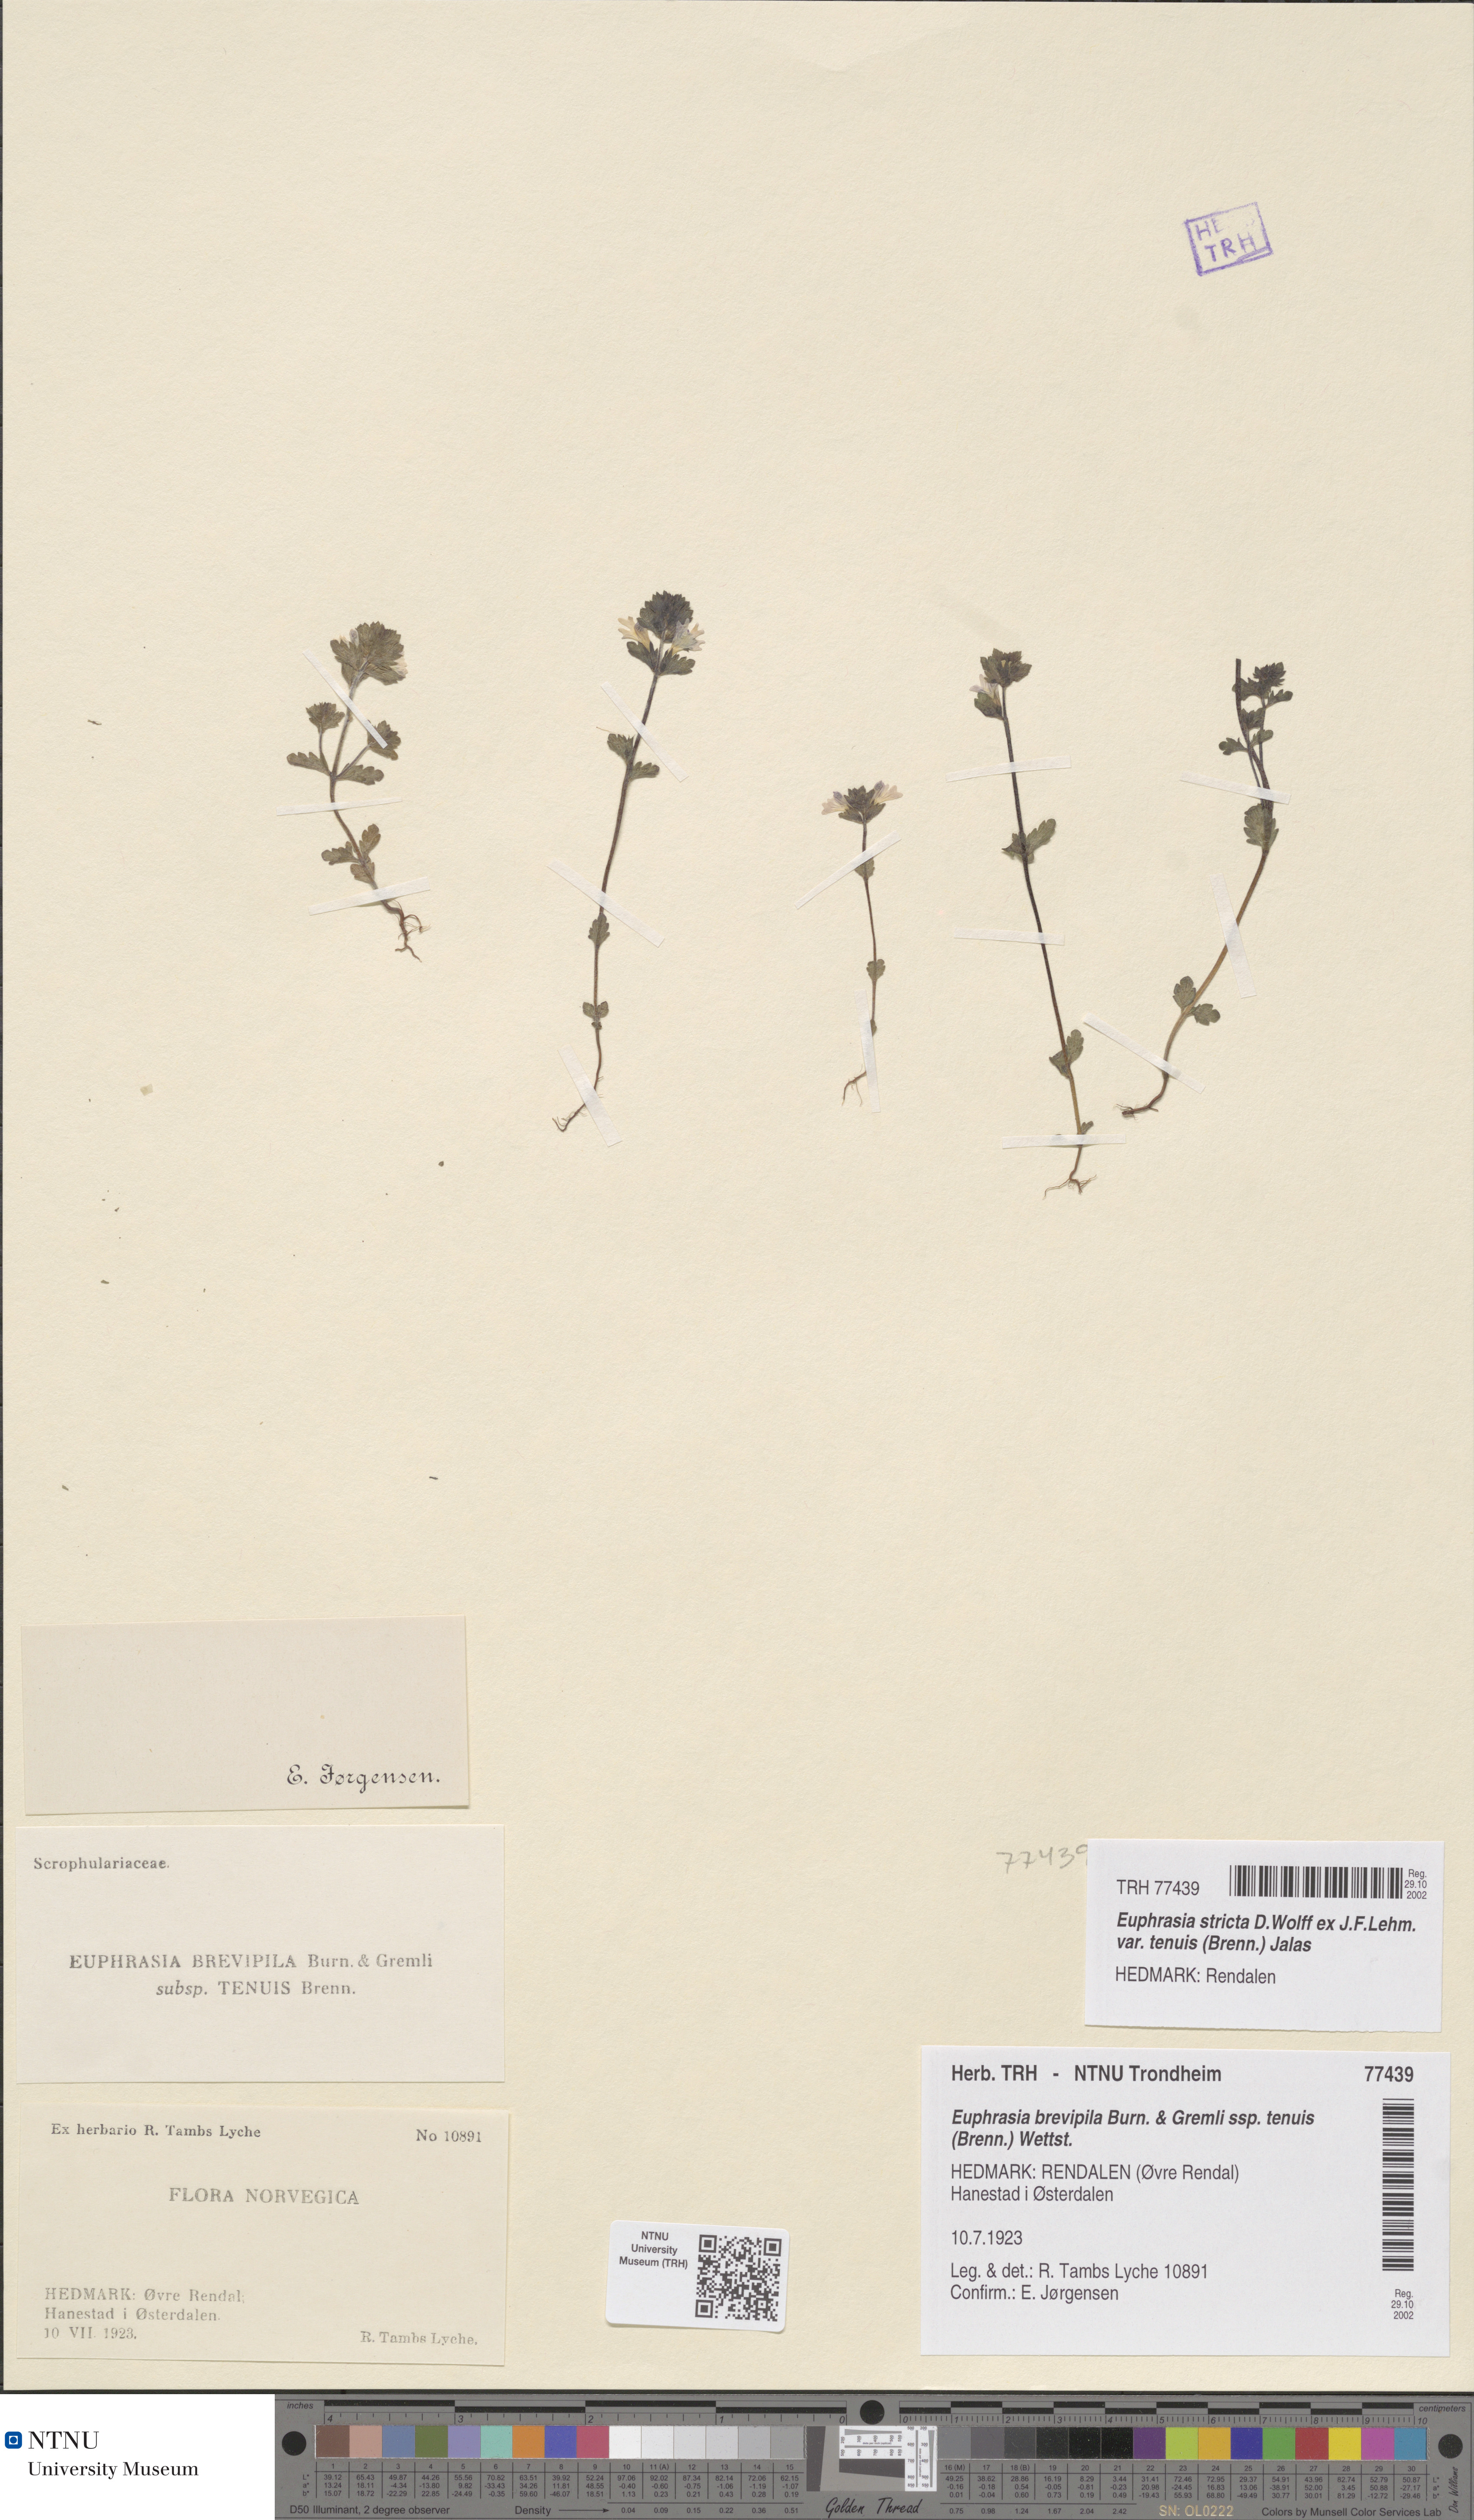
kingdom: Plantae
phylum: Tracheophyta
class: Magnoliopsida
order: Lamiales
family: Orobanchaceae
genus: Euphrasia
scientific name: Euphrasia vernalis
